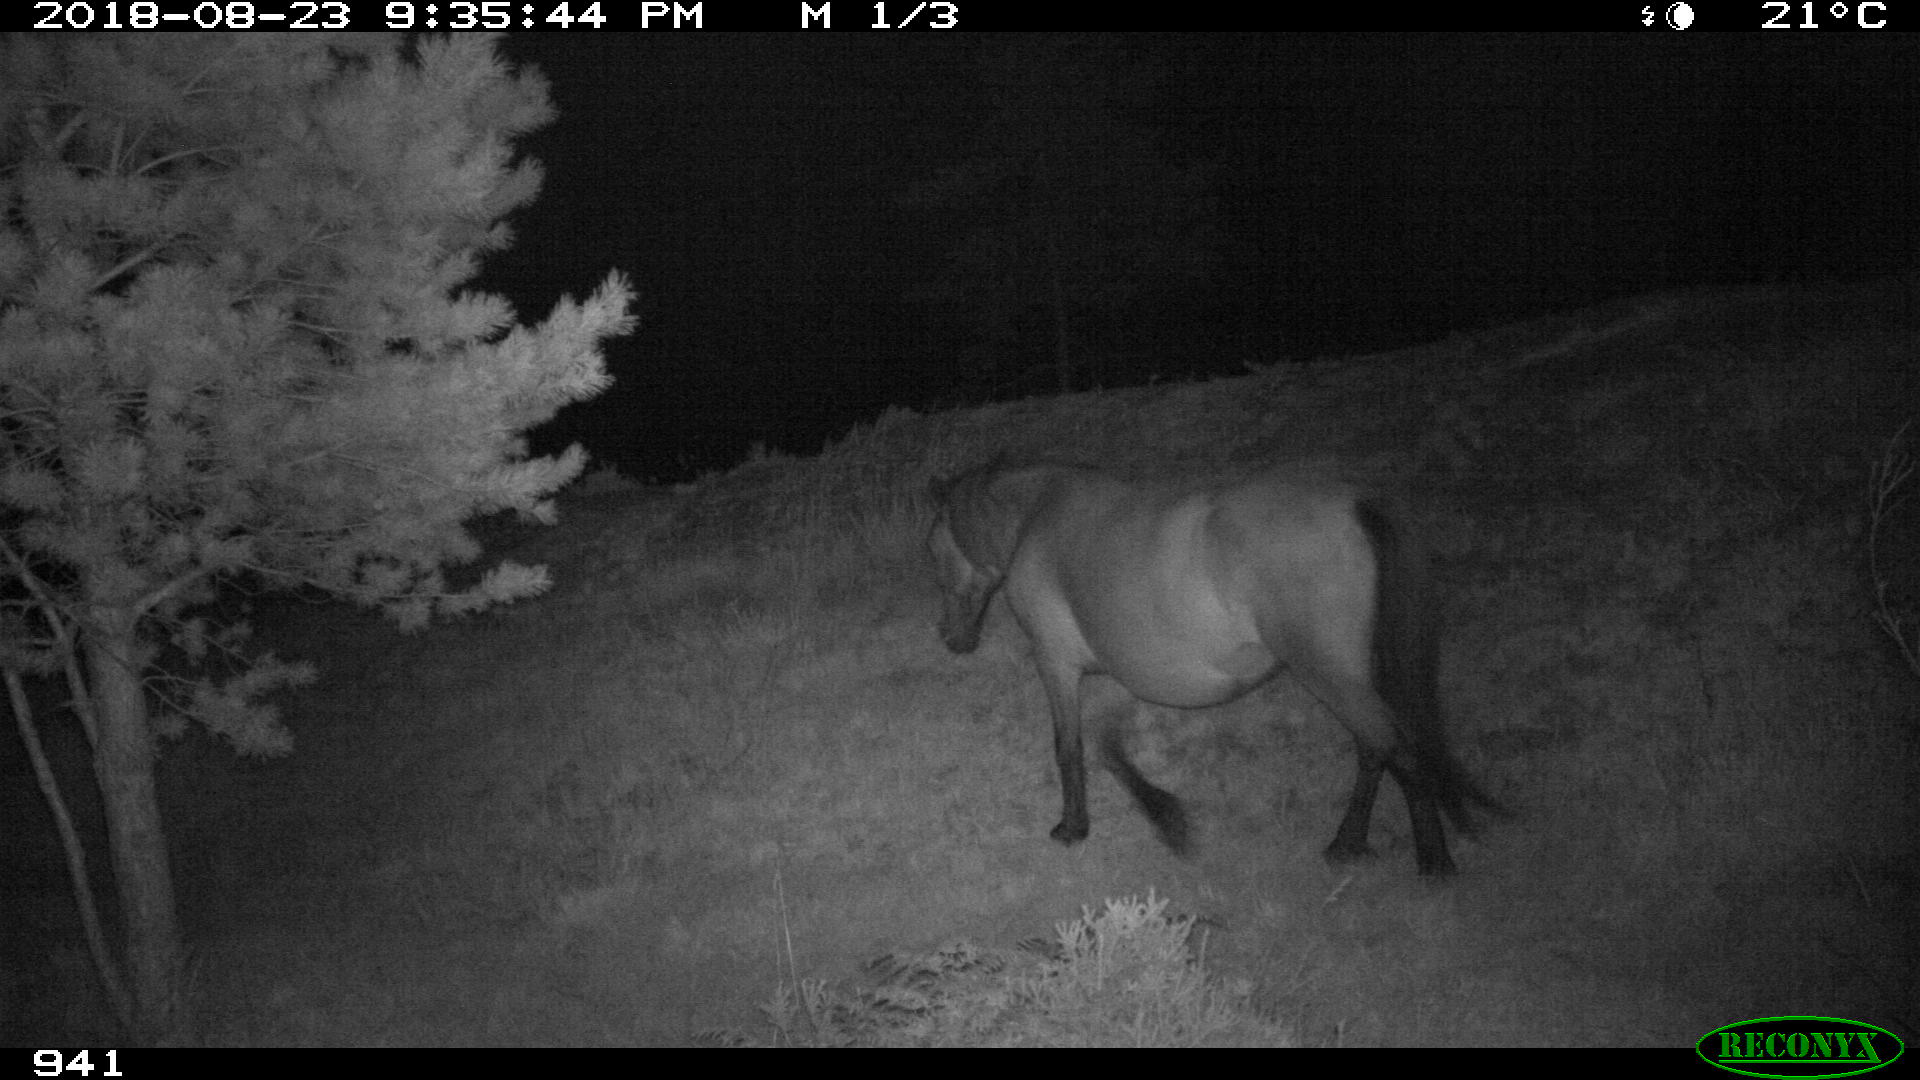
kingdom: Animalia
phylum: Chordata
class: Mammalia
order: Perissodactyla
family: Equidae
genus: Equus
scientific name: Equus caballus
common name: Horse
